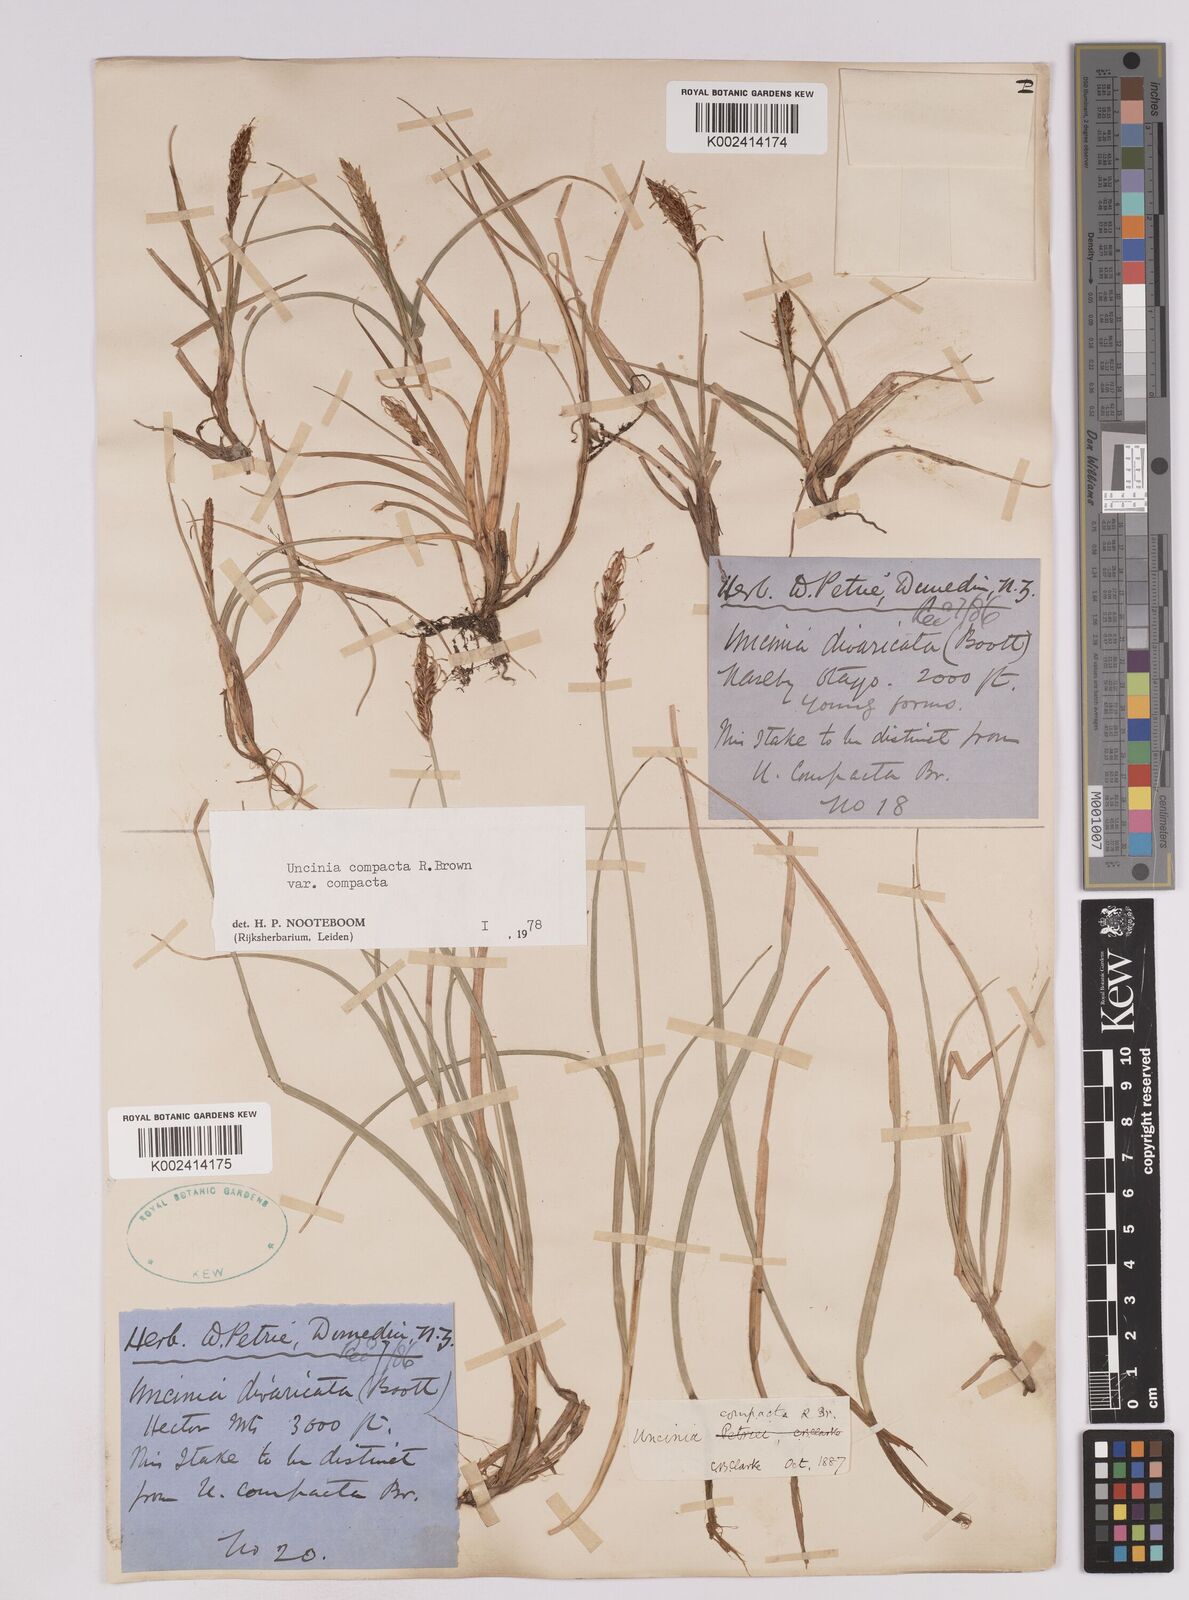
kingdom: Plantae
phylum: Tracheophyta
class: Liliopsida
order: Poales
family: Cyperaceae
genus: Carex
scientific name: Carex austrocompacta
